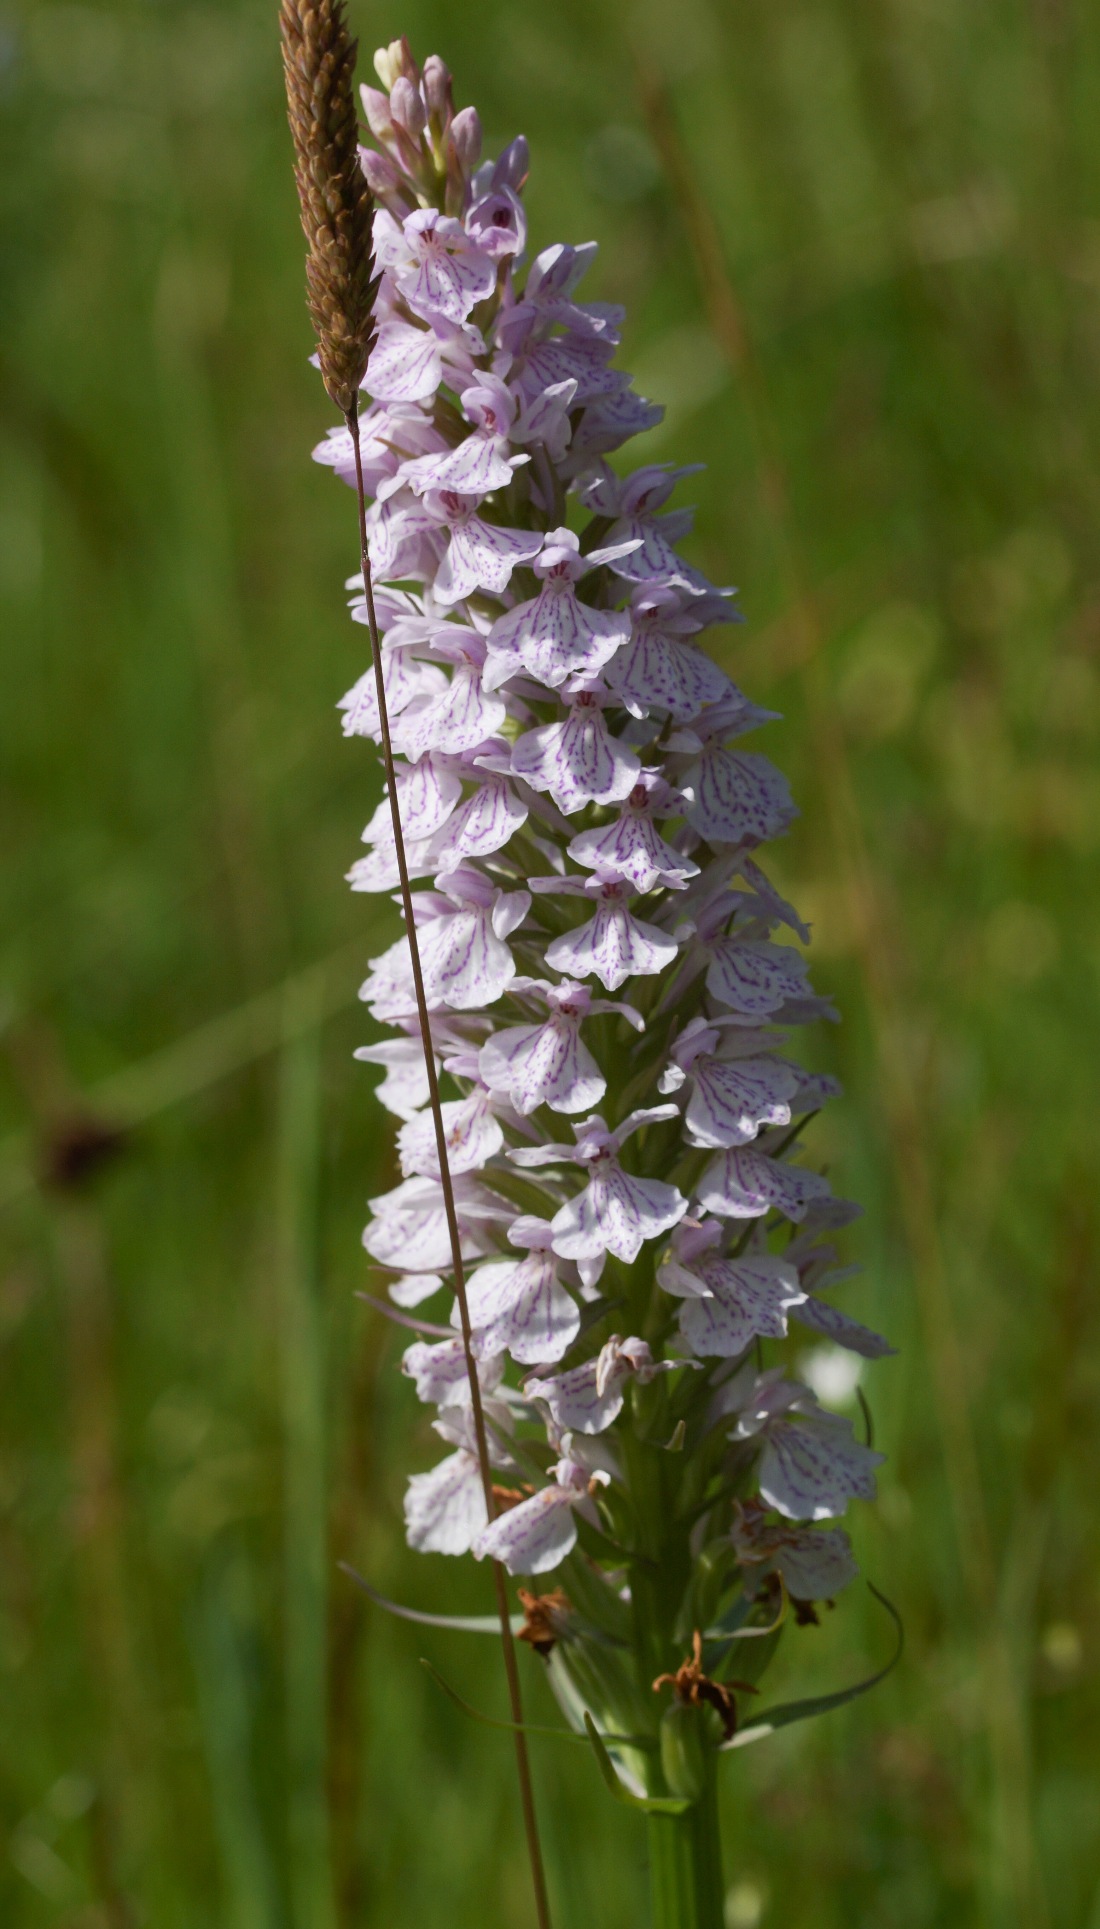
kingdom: Plantae
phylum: Tracheophyta
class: Liliopsida
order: Asparagales
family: Orchidaceae
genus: Dactylorhiza
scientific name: Dactylorhiza maculata
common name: Plettet gøgeurt
